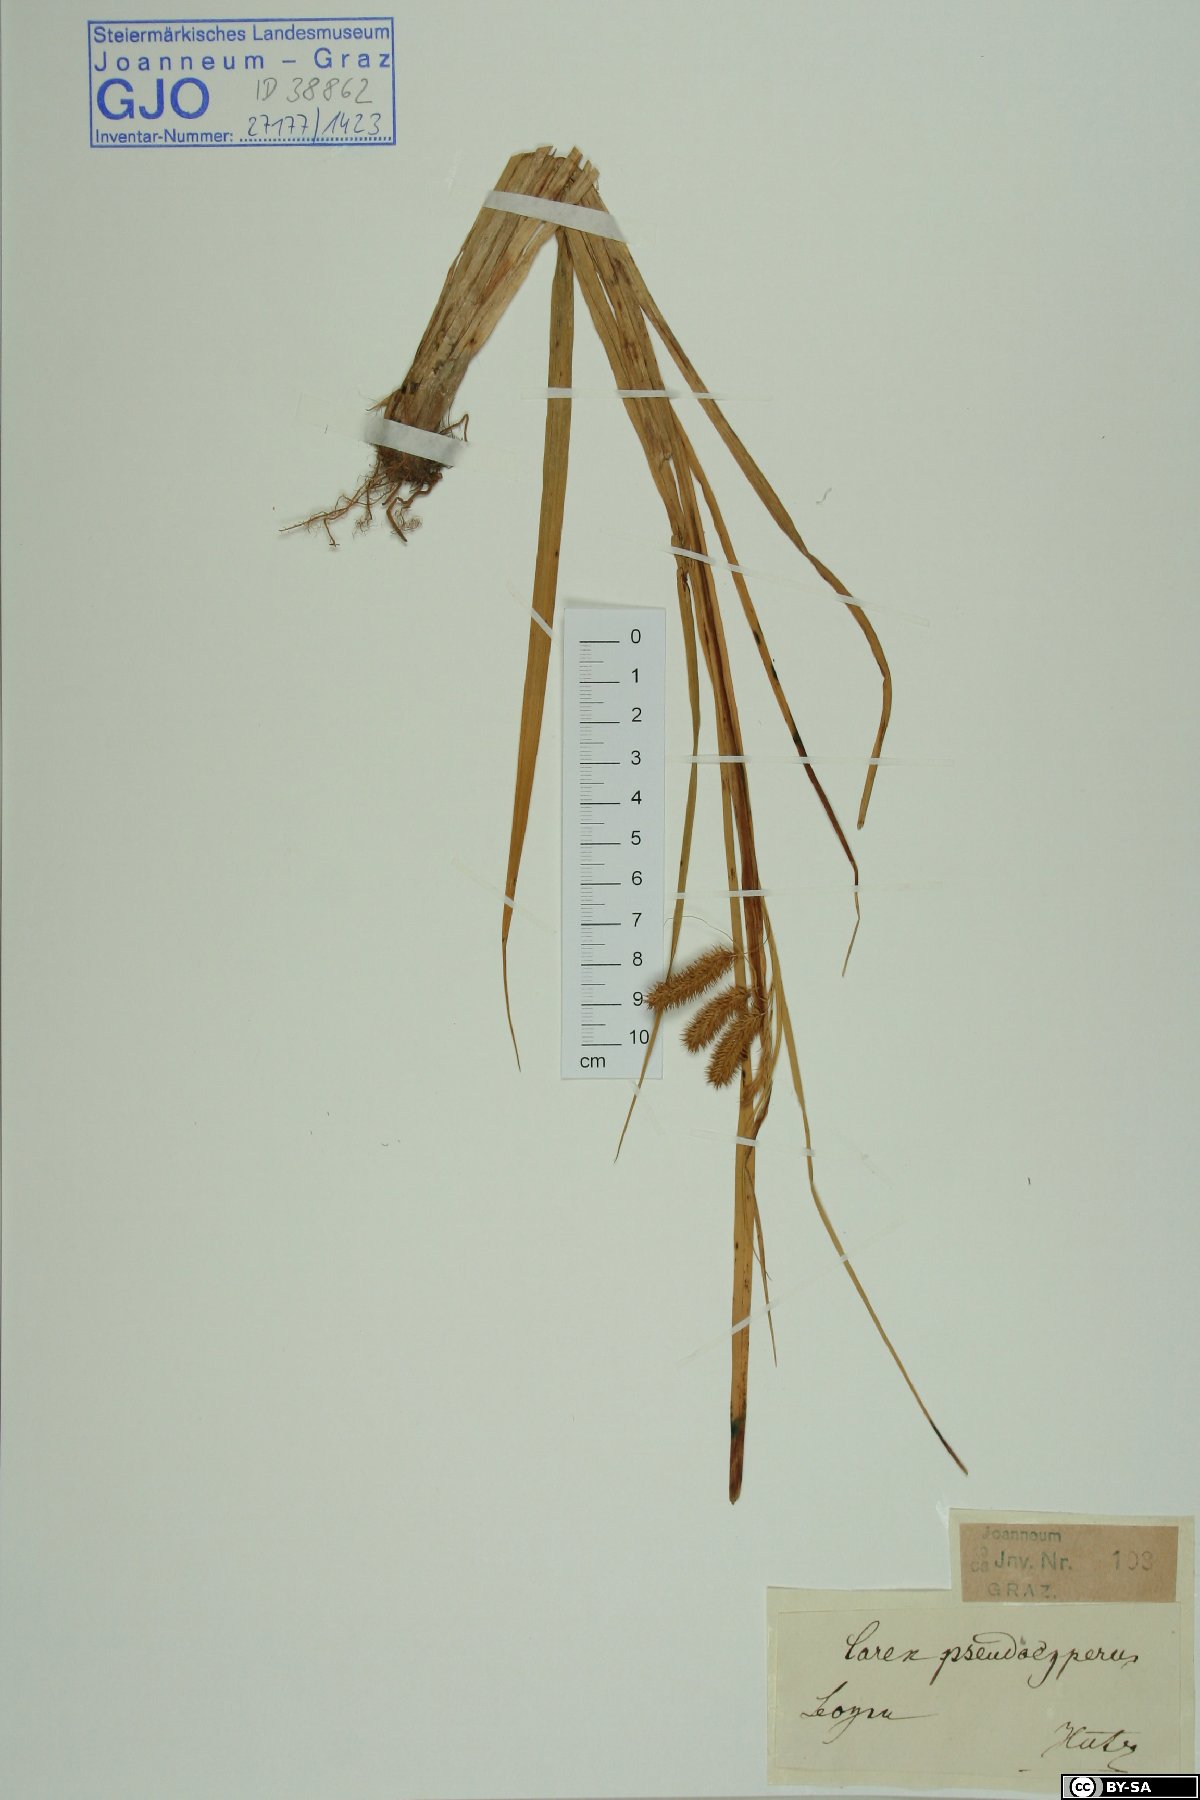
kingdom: Plantae
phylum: Tracheophyta
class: Liliopsida
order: Poales
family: Cyperaceae
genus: Carex
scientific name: Carex pseudocyperus
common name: Cyperus sedge
